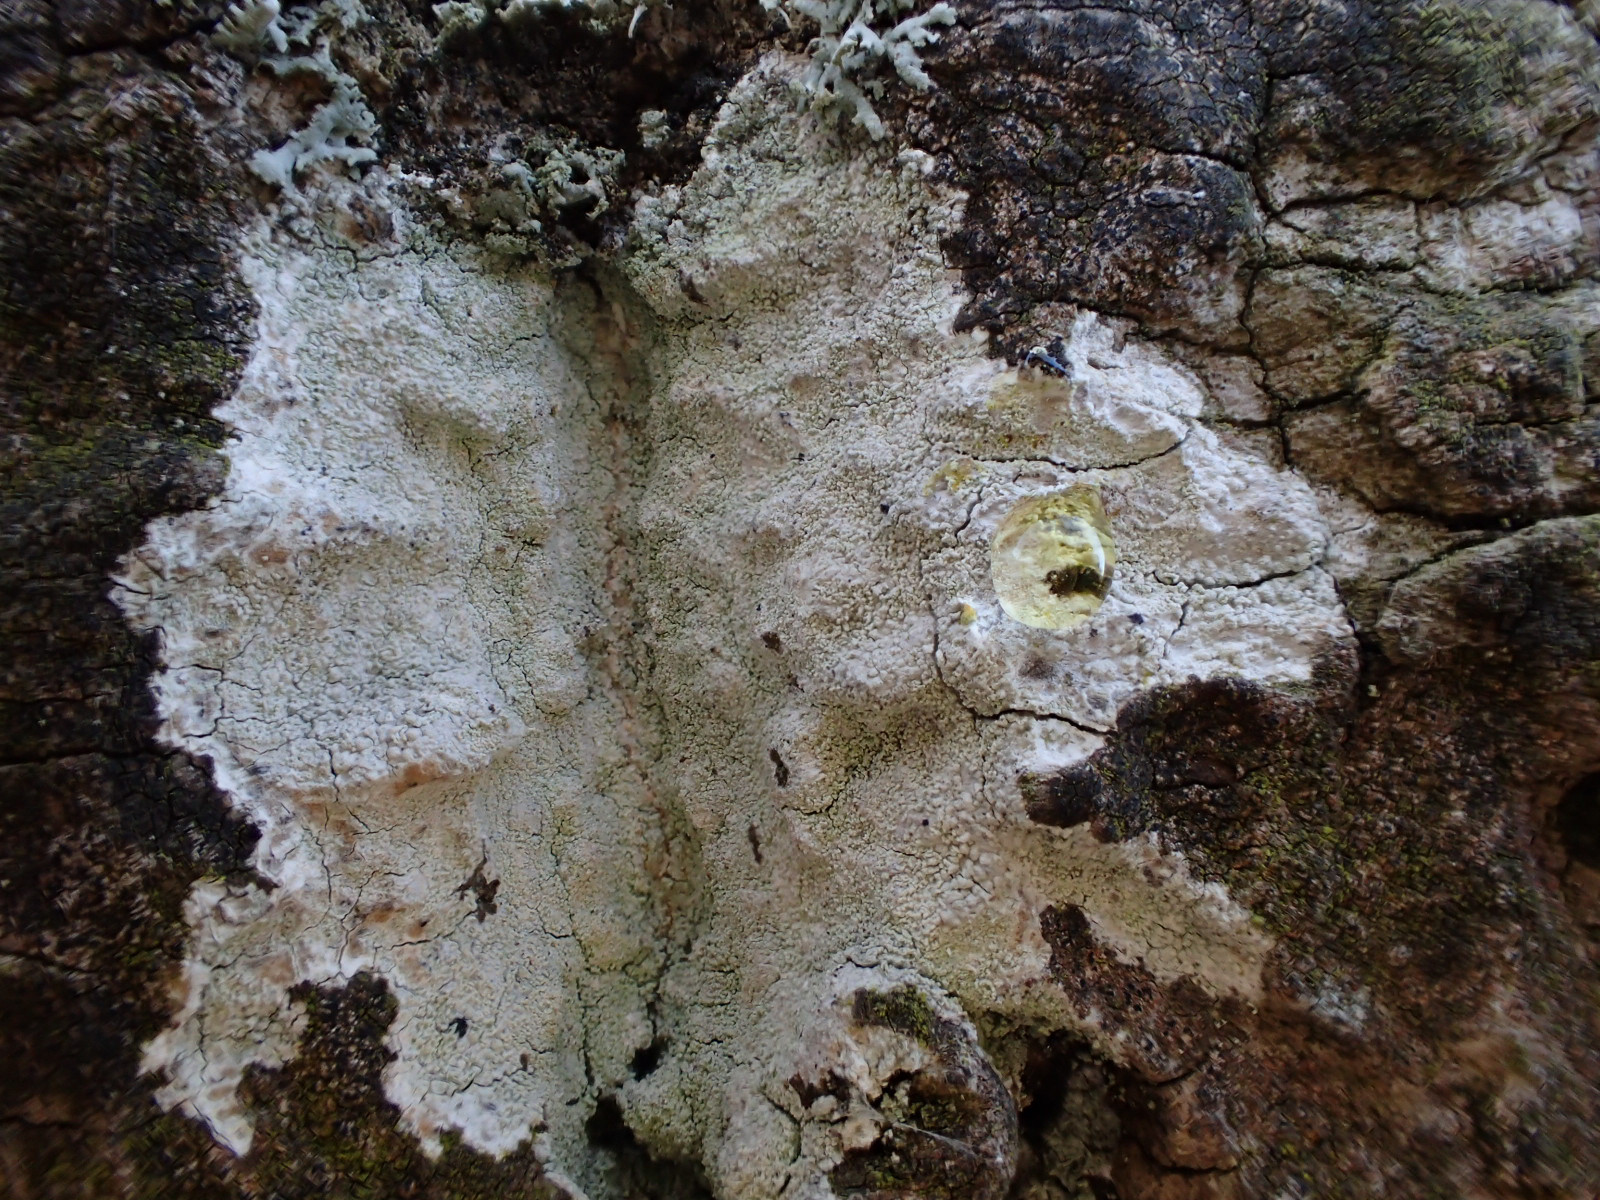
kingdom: Fungi
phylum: Ascomycota
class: Lecanoromycetes
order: Ostropales
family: Phlyctidaceae
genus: Phlyctis
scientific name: Phlyctis argena
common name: almindelig sølvlav
